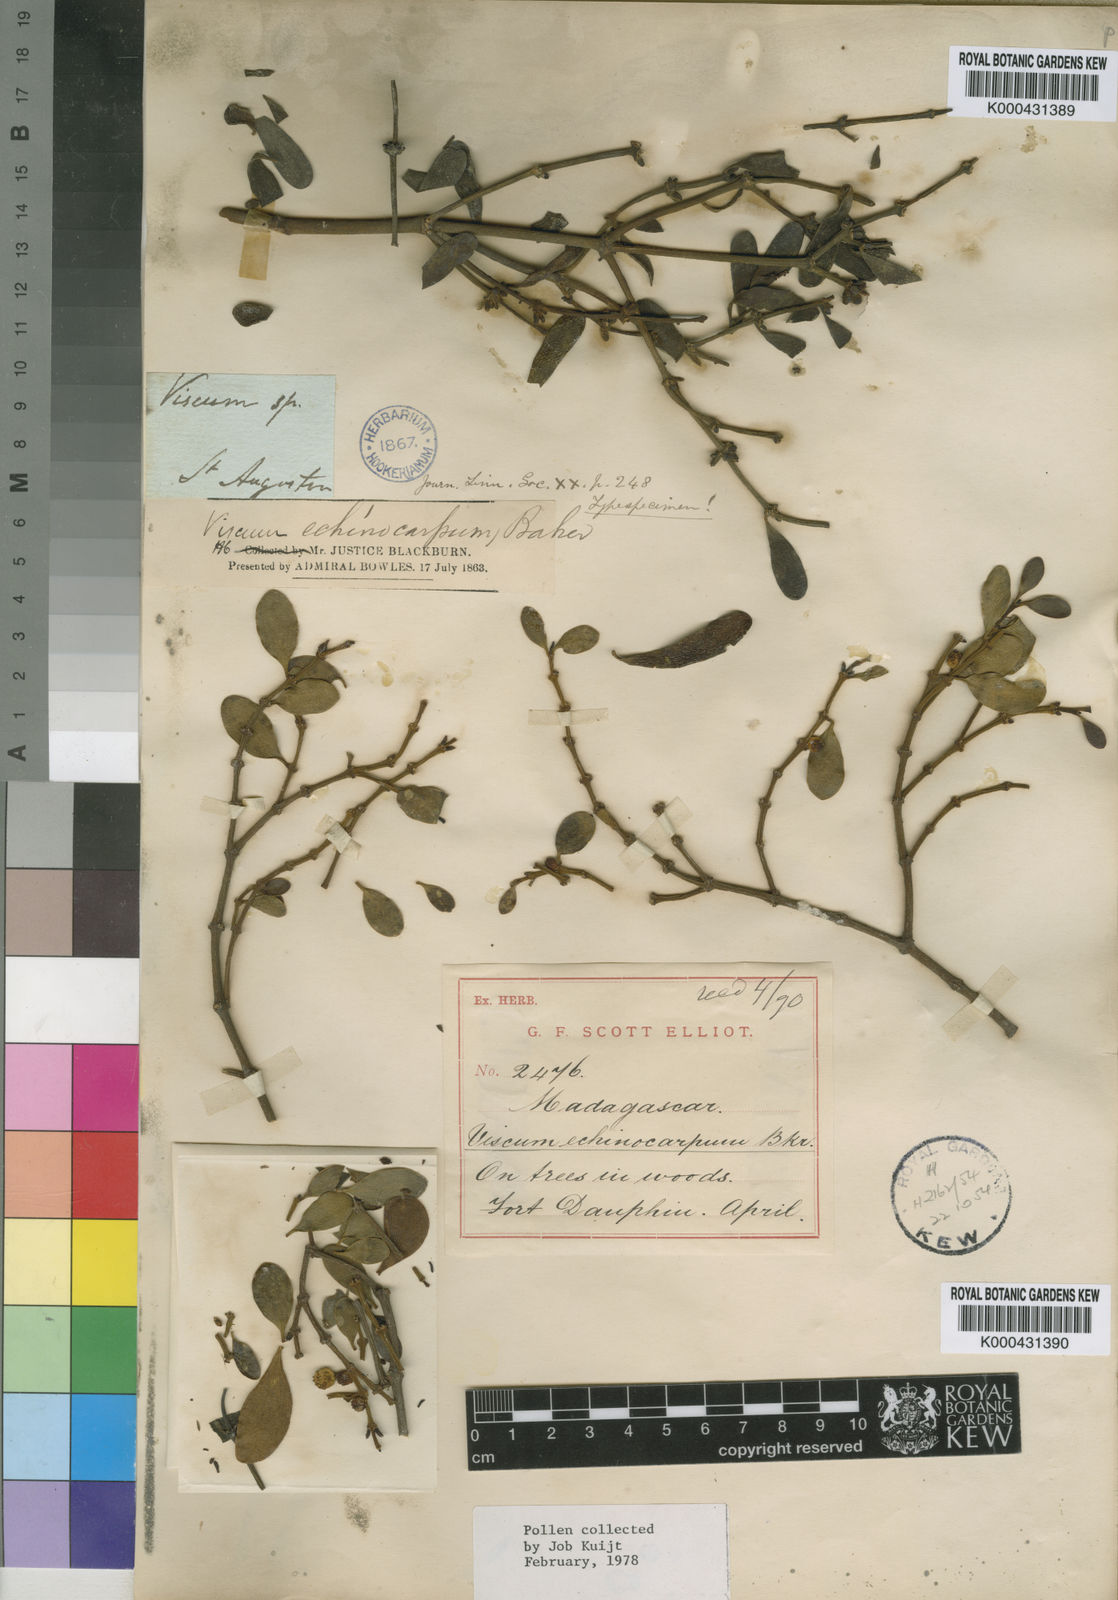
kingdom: Plantae
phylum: Tracheophyta
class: Magnoliopsida
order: Santalales
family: Viscaceae
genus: Viscum
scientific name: Viscum echinocarpum
